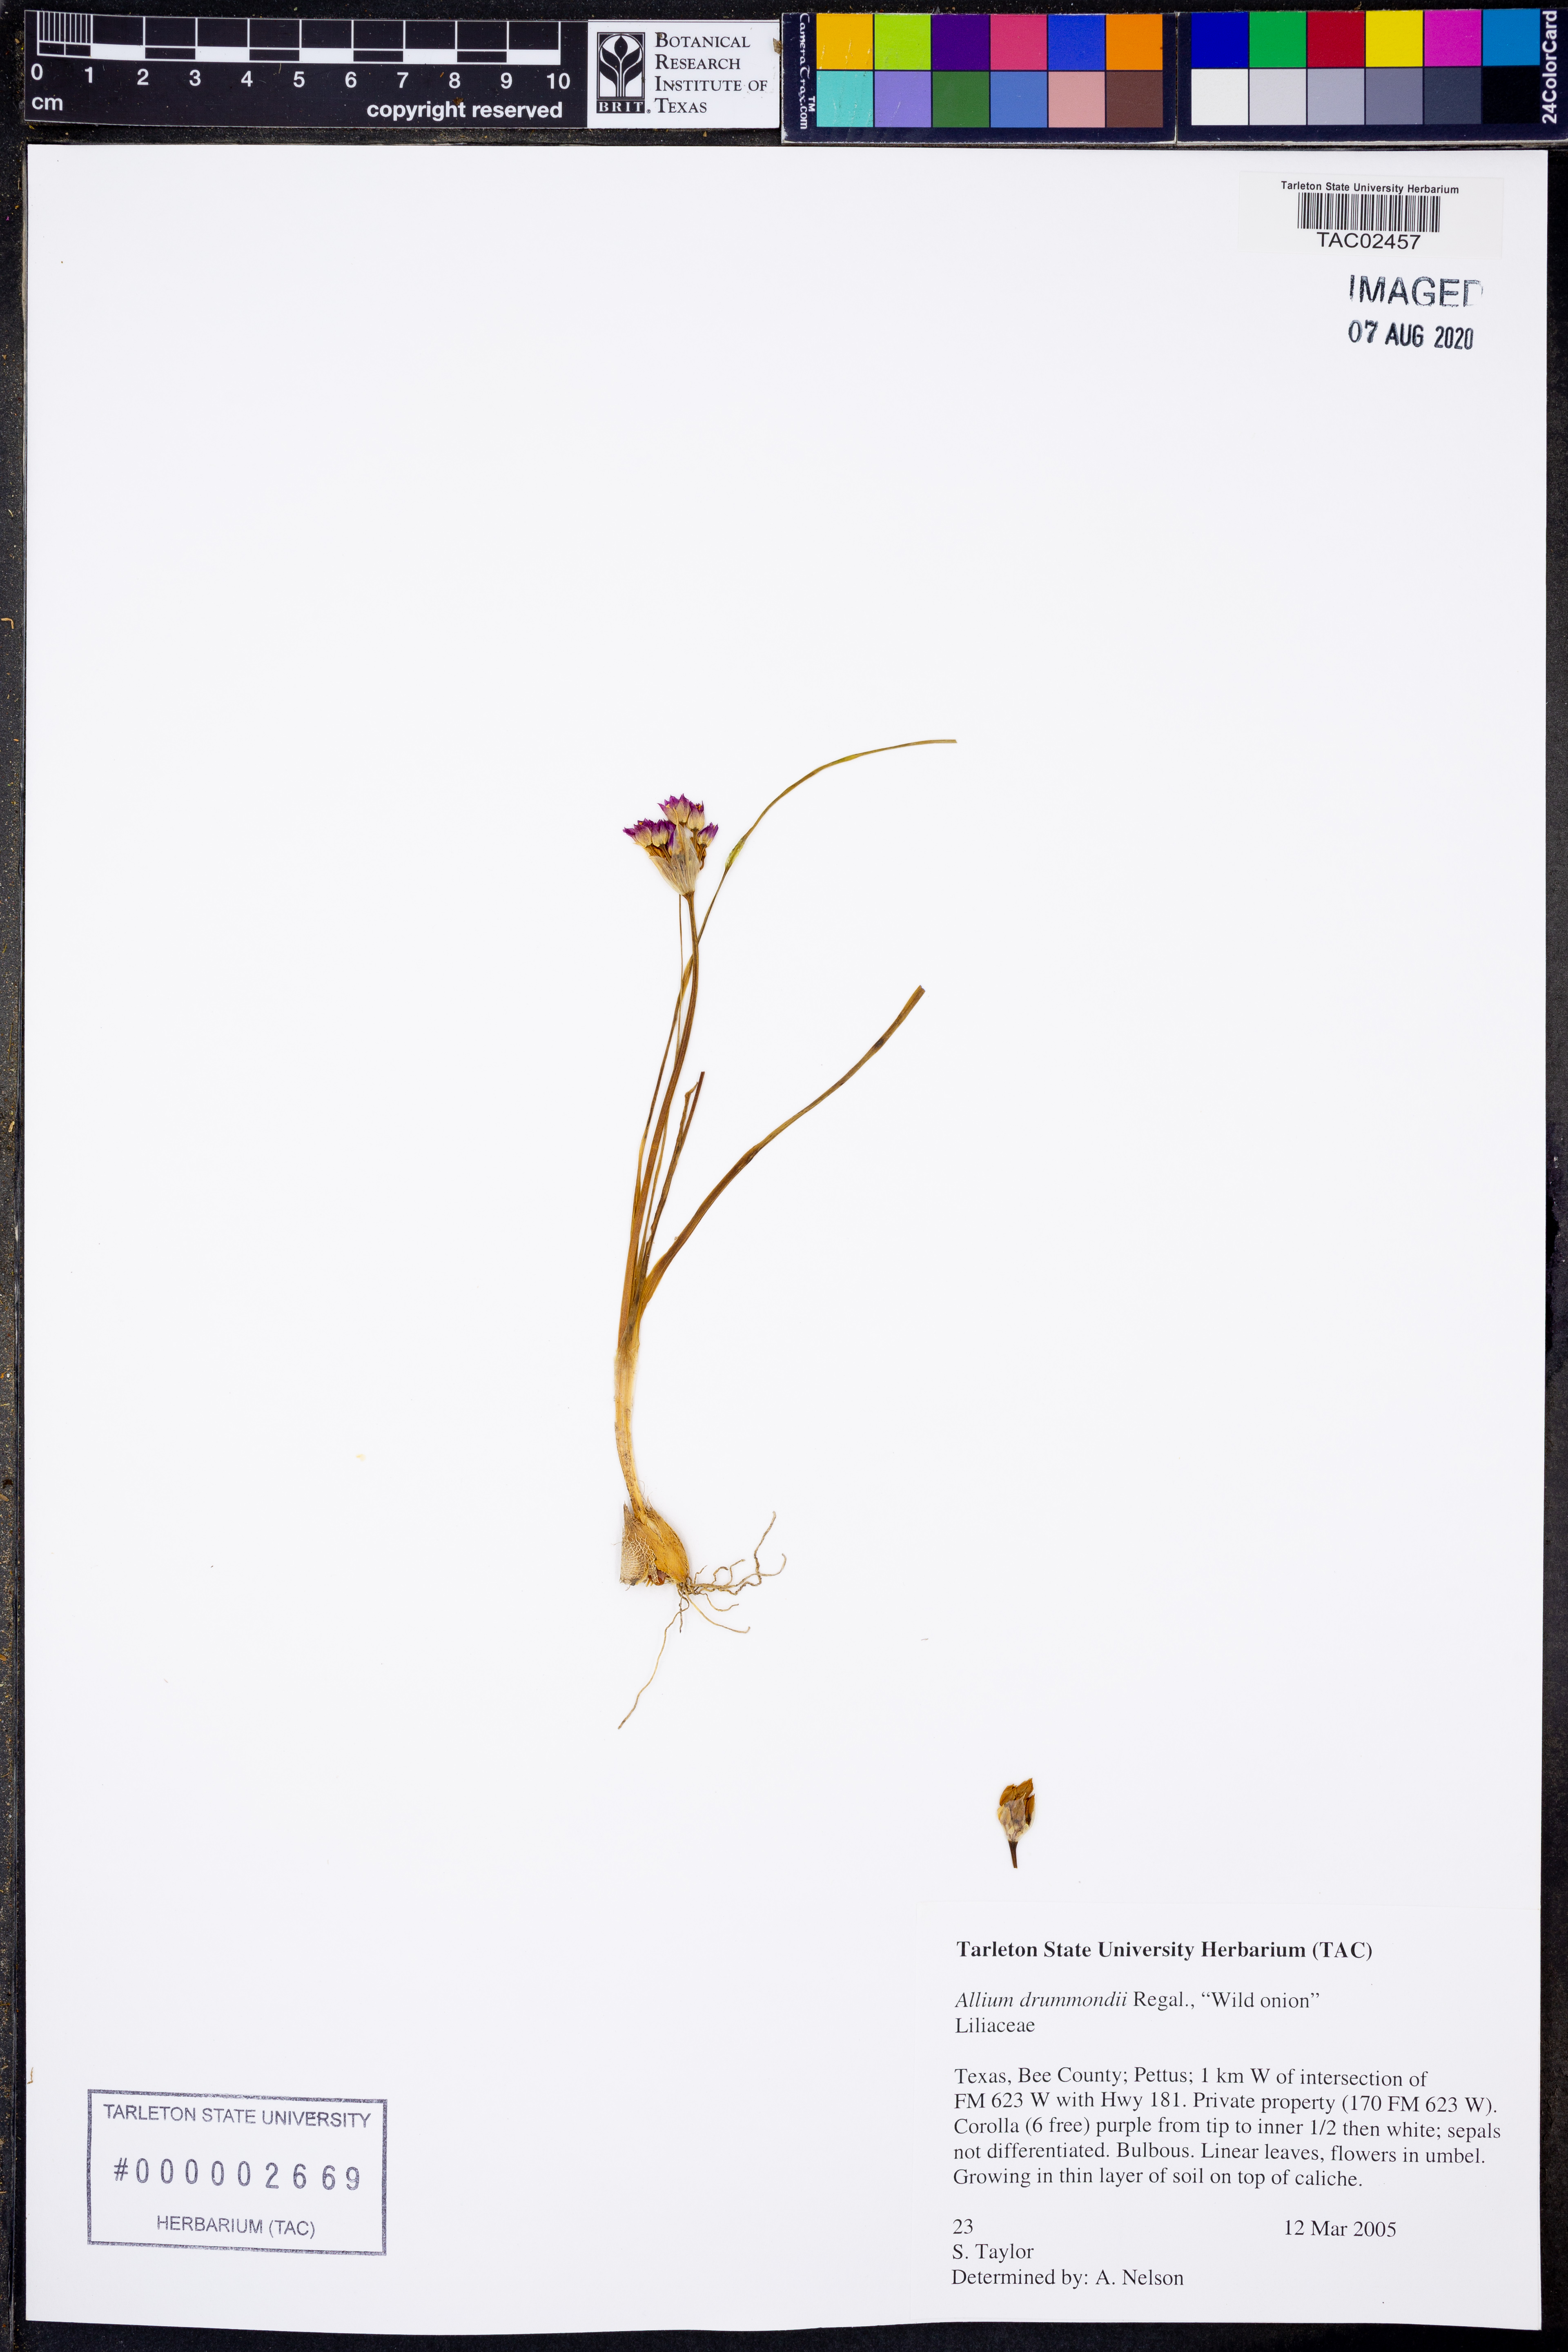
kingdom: Plantae
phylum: Tracheophyta
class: Liliopsida
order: Asparagales
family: Amaryllidaceae
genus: Allium
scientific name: Allium drummondii
